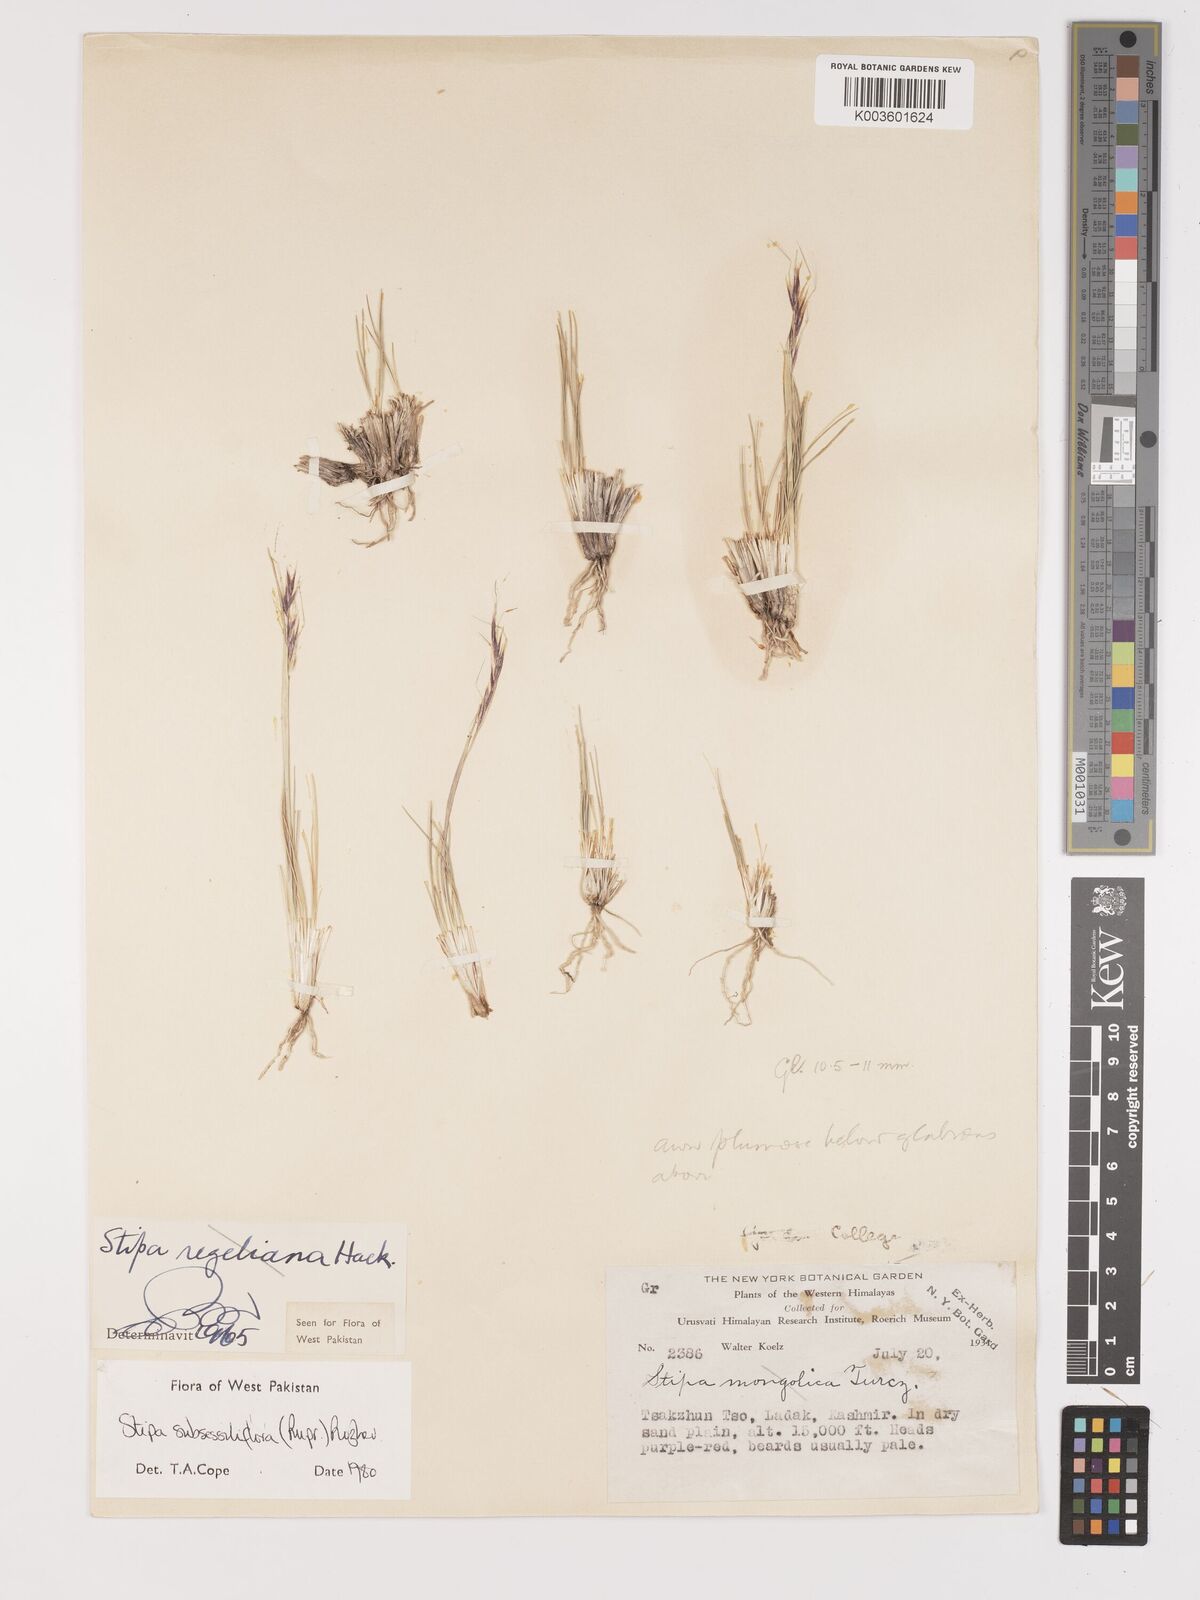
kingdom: Plantae
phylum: Tracheophyta
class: Liliopsida
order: Poales
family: Poaceae
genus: Stipa
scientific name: Stipa subsessiliflora
